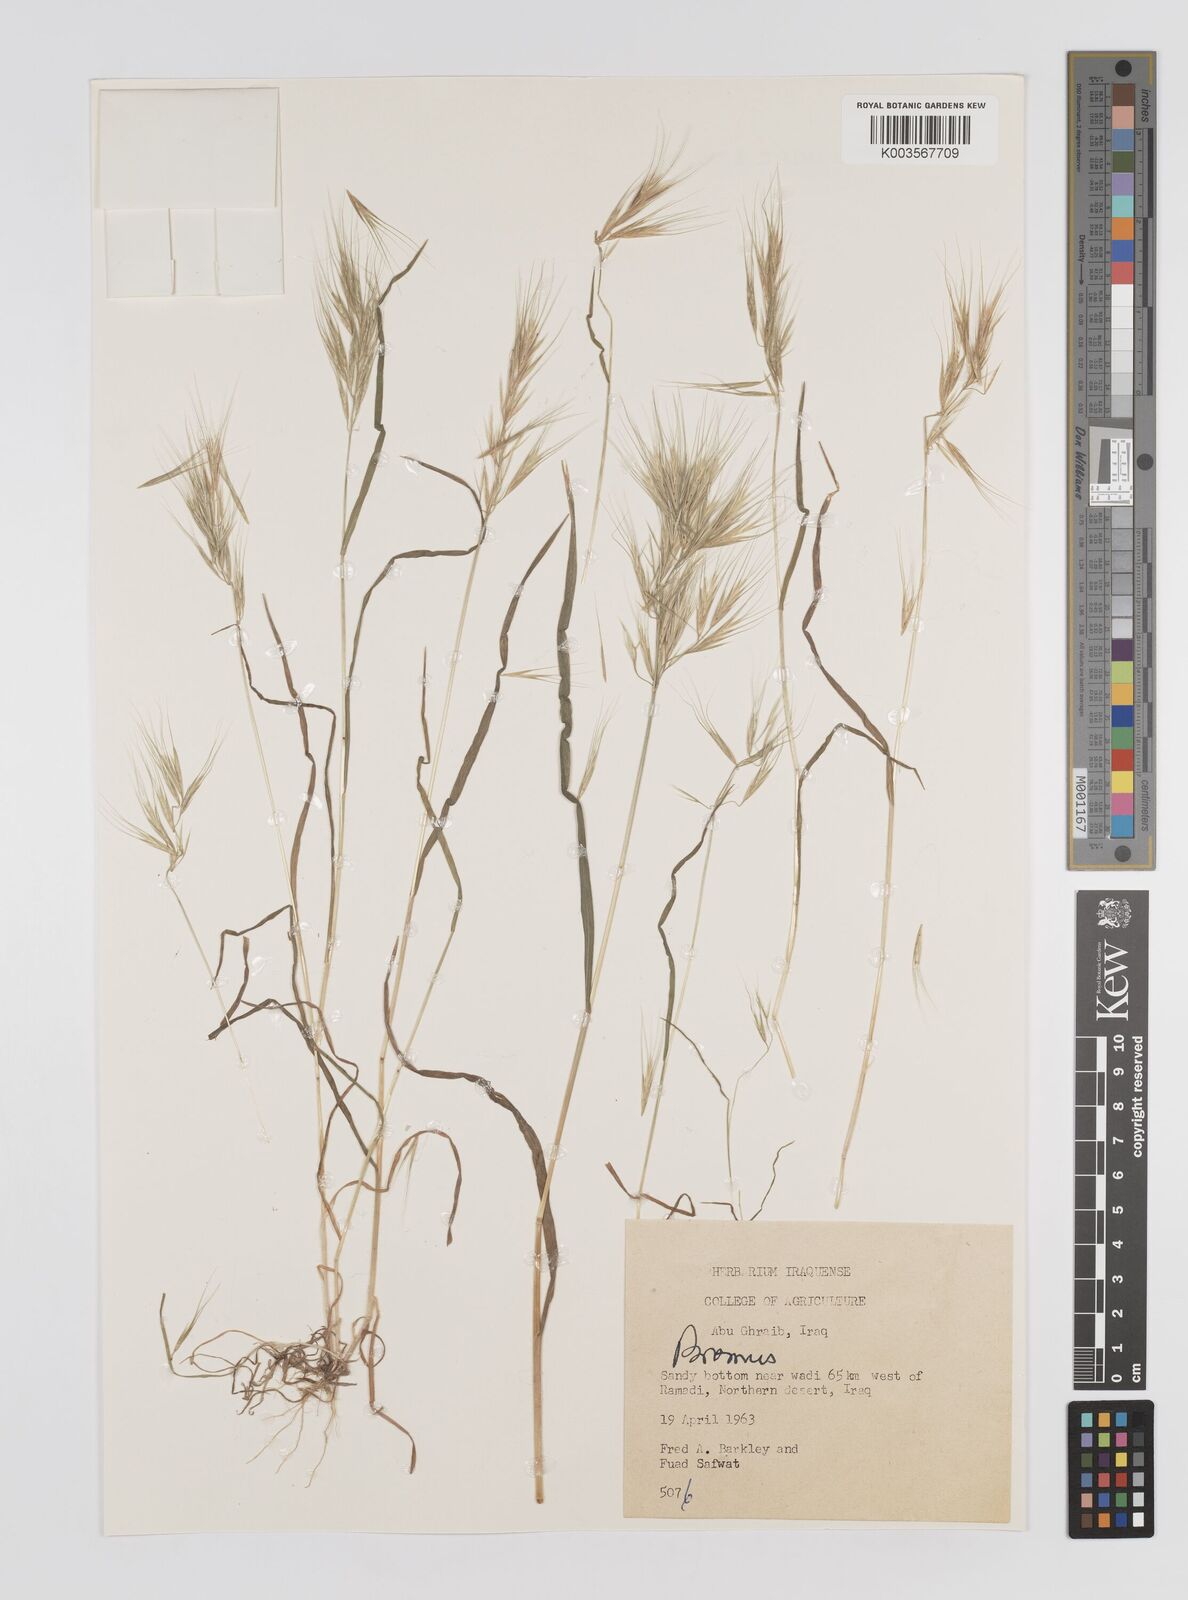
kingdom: Plantae
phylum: Tracheophyta
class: Liliopsida
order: Poales
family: Poaceae
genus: Bromus
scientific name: Bromus
